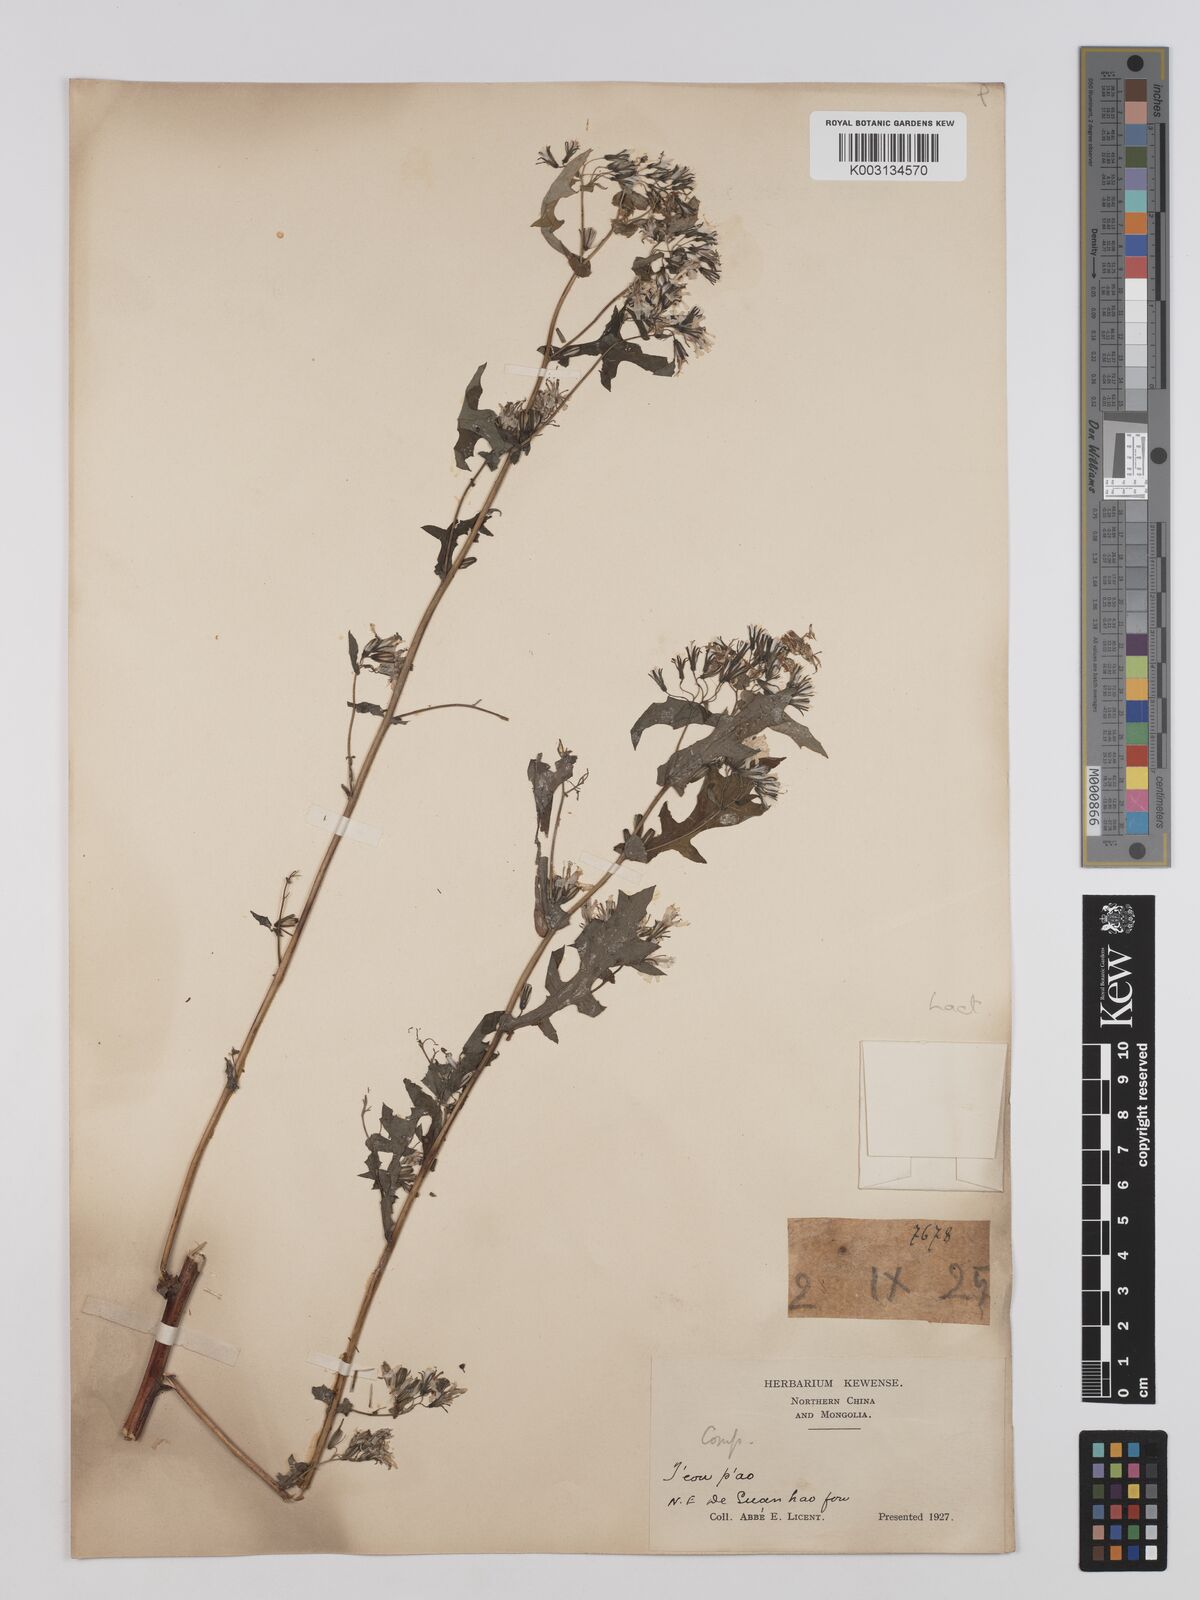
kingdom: Plantae
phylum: Tracheophyta
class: Magnoliopsida
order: Asterales
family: Asteraceae
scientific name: Asteraceae
